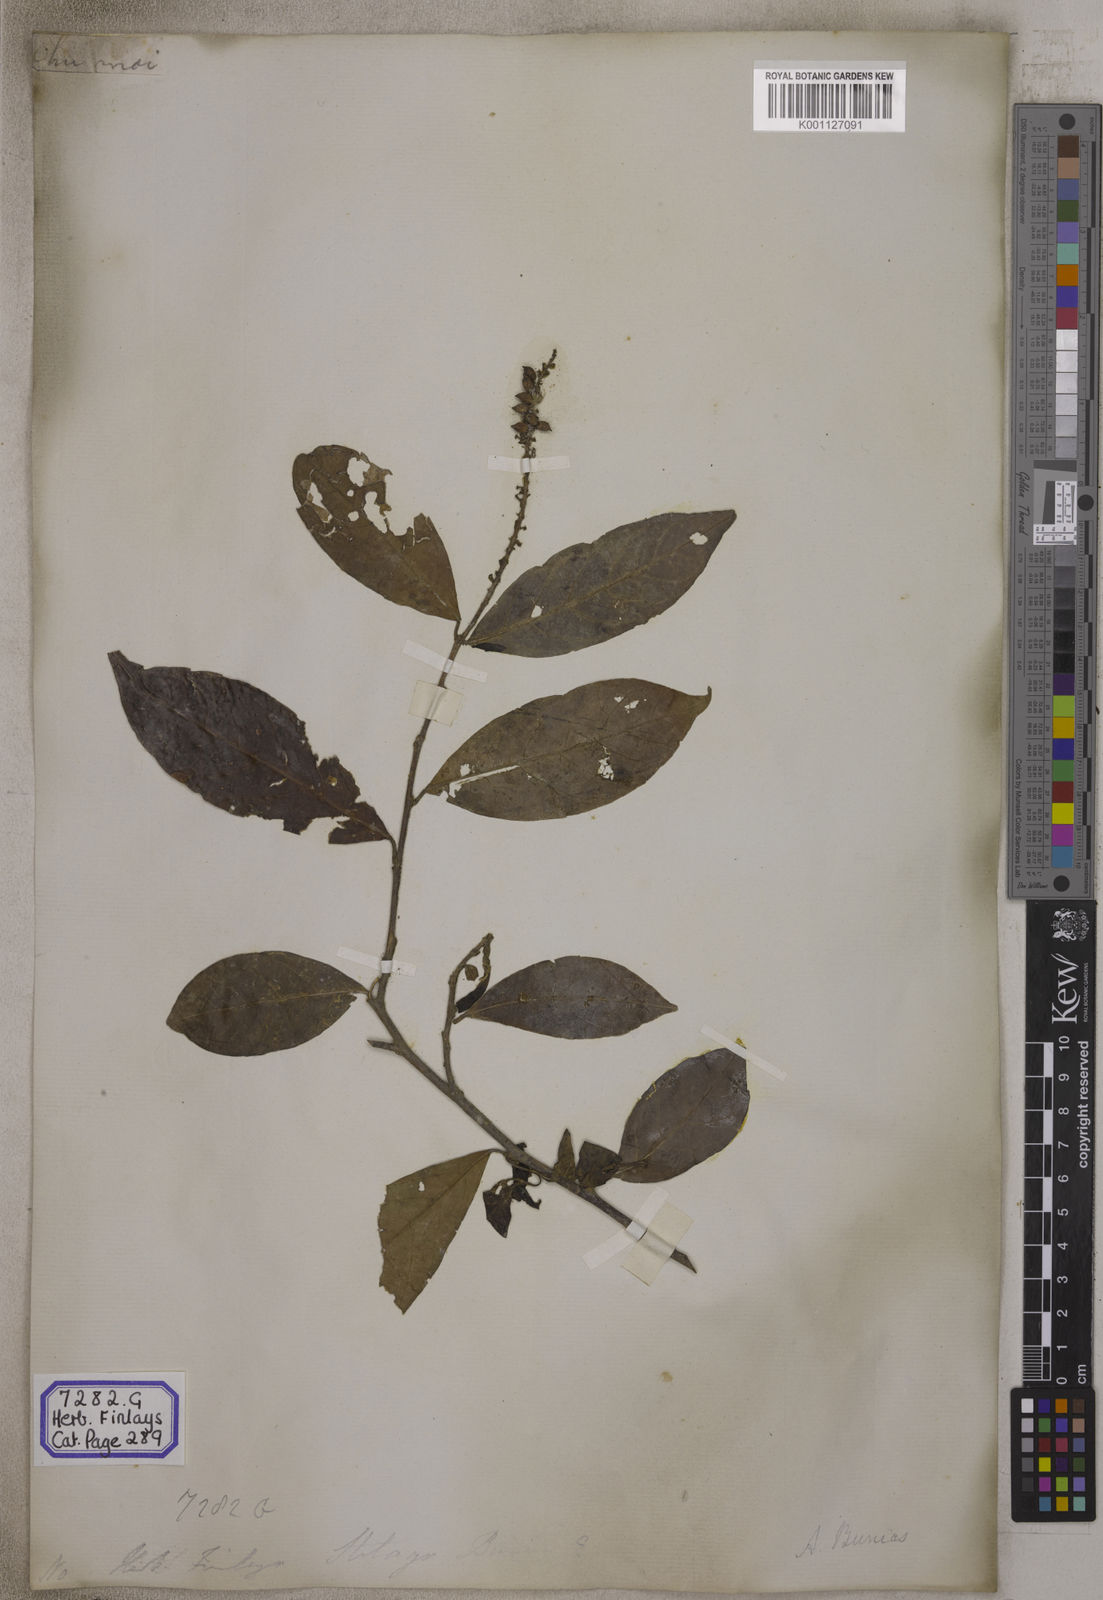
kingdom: Plantae
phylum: Tracheophyta
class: Magnoliopsida
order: Malpighiales
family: Phyllanthaceae
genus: Antidesma
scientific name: Antidesma nigricans
